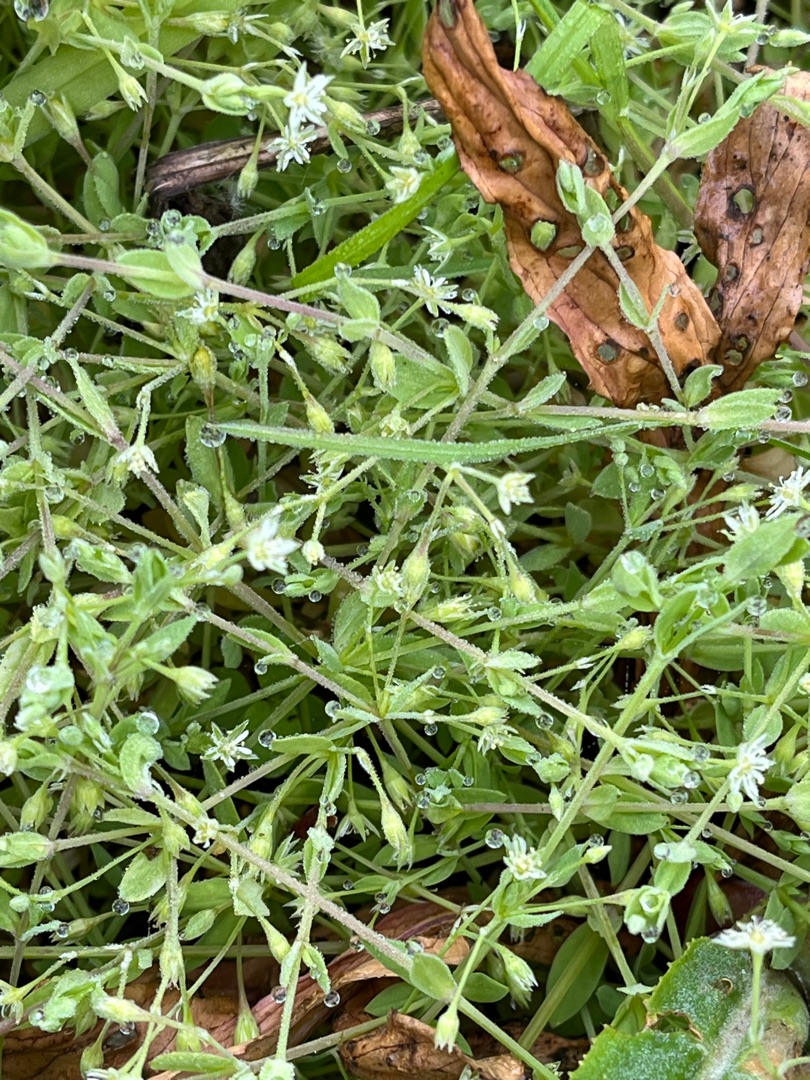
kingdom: Plantae
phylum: Tracheophyta
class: Magnoliopsida
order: Caryophyllales
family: Caryophyllaceae
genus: Stellaria
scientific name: Stellaria alsine
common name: Sump-fladstjerne
